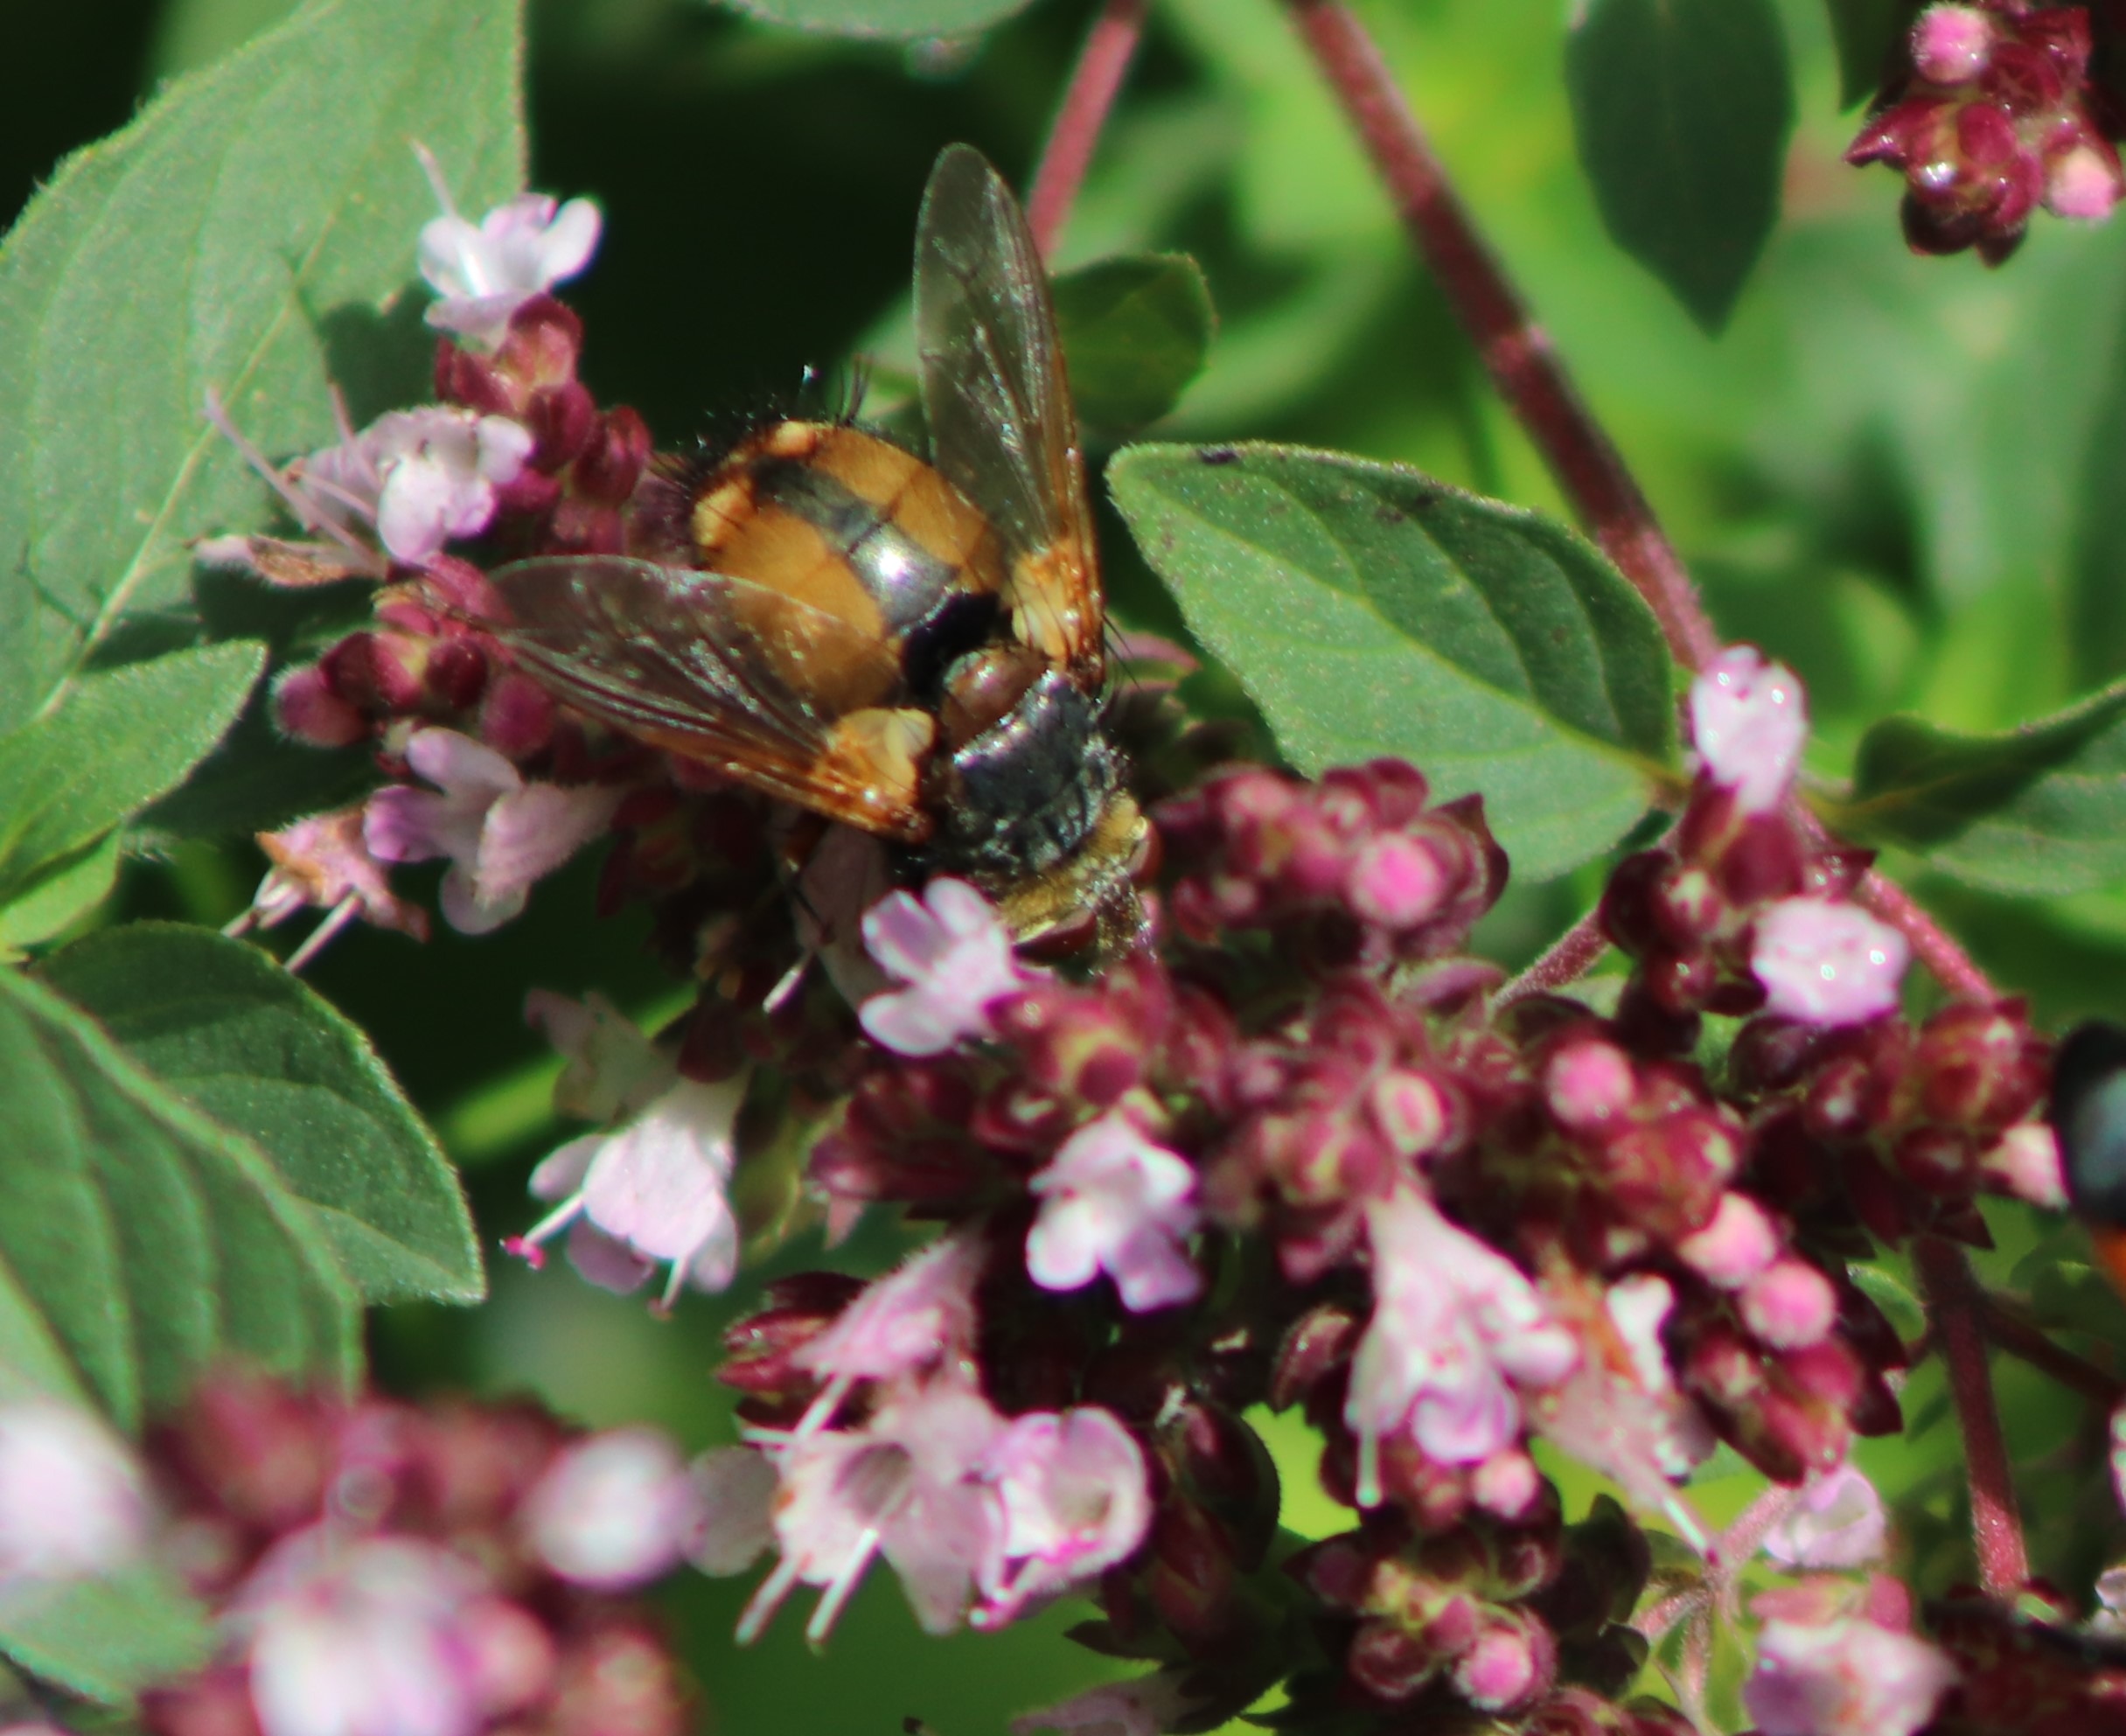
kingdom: Animalia
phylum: Arthropoda
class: Insecta
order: Diptera
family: Tachinidae
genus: Tachina
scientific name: Tachina fera
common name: Mellemfluen oskar
